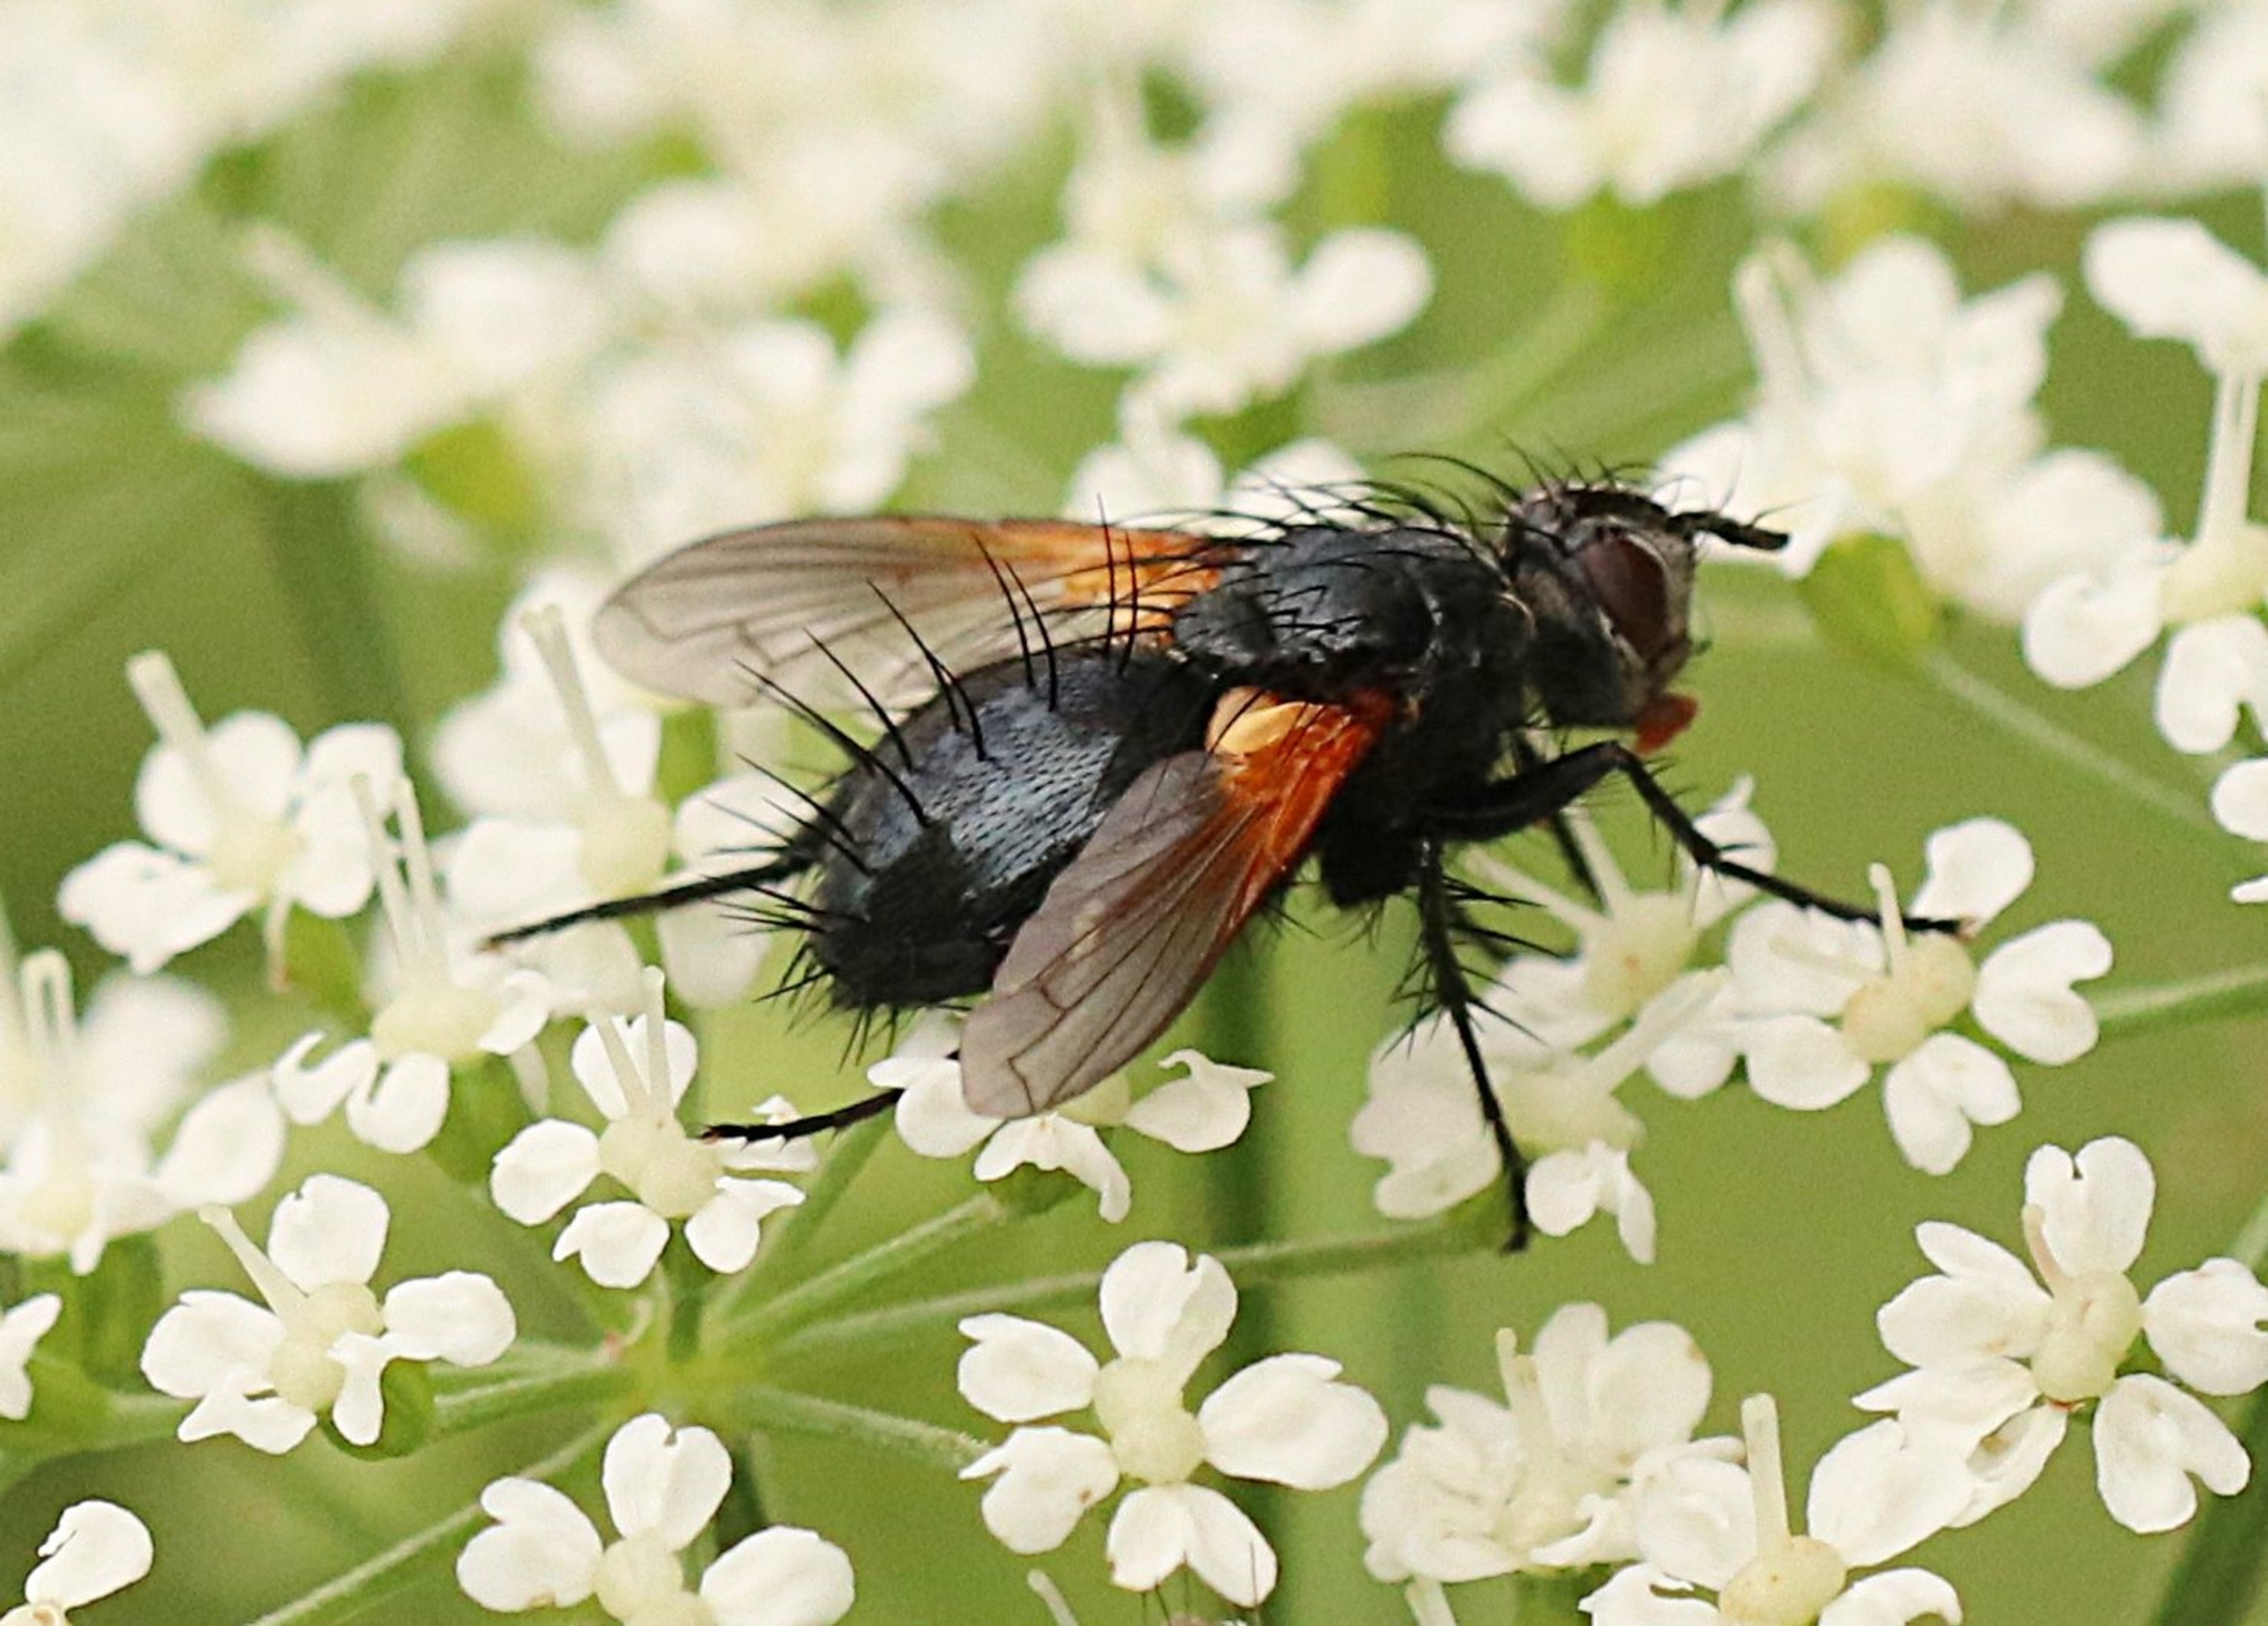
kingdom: Animalia
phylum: Arthropoda
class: Insecta
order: Diptera
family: Tachinidae
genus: Zophomyia
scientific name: Zophomyia temula
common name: Gulvinget snylteflue
